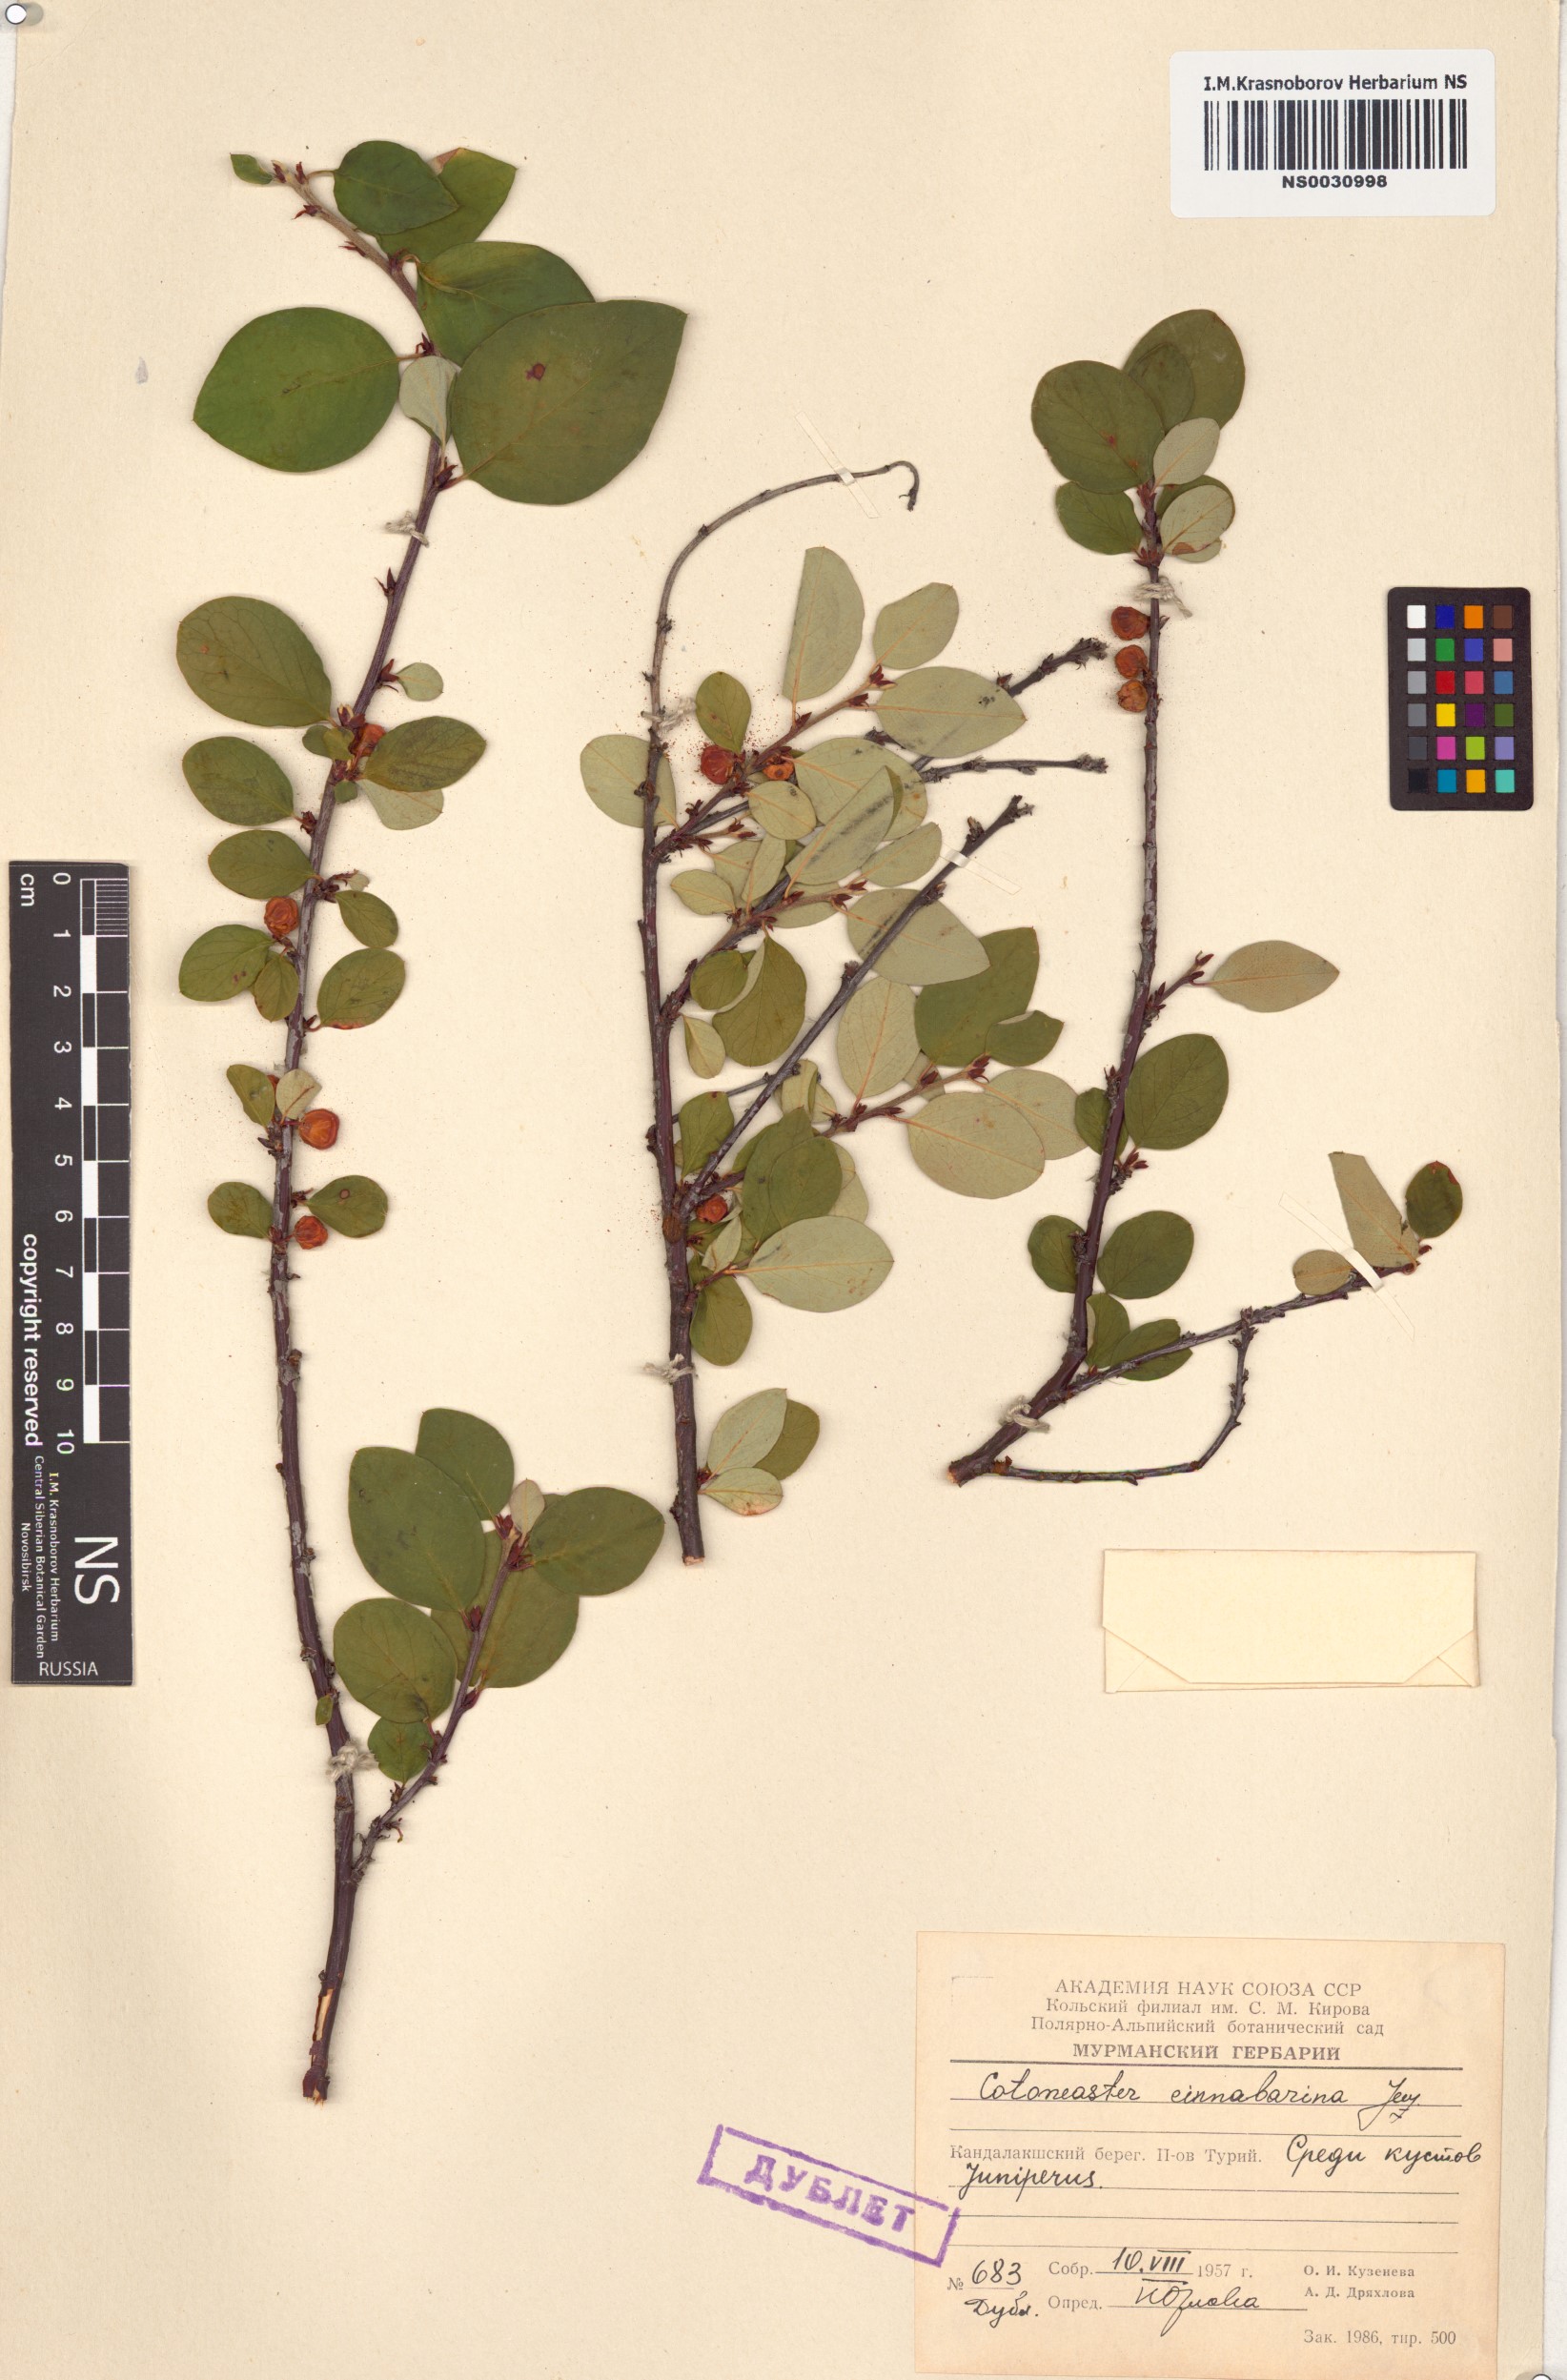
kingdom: Plantae
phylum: Tracheophyta
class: Magnoliopsida
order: Rosales
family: Rosaceae
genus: Cotoneaster
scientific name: Cotoneaster integerrimus
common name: Wild cotoneaster
